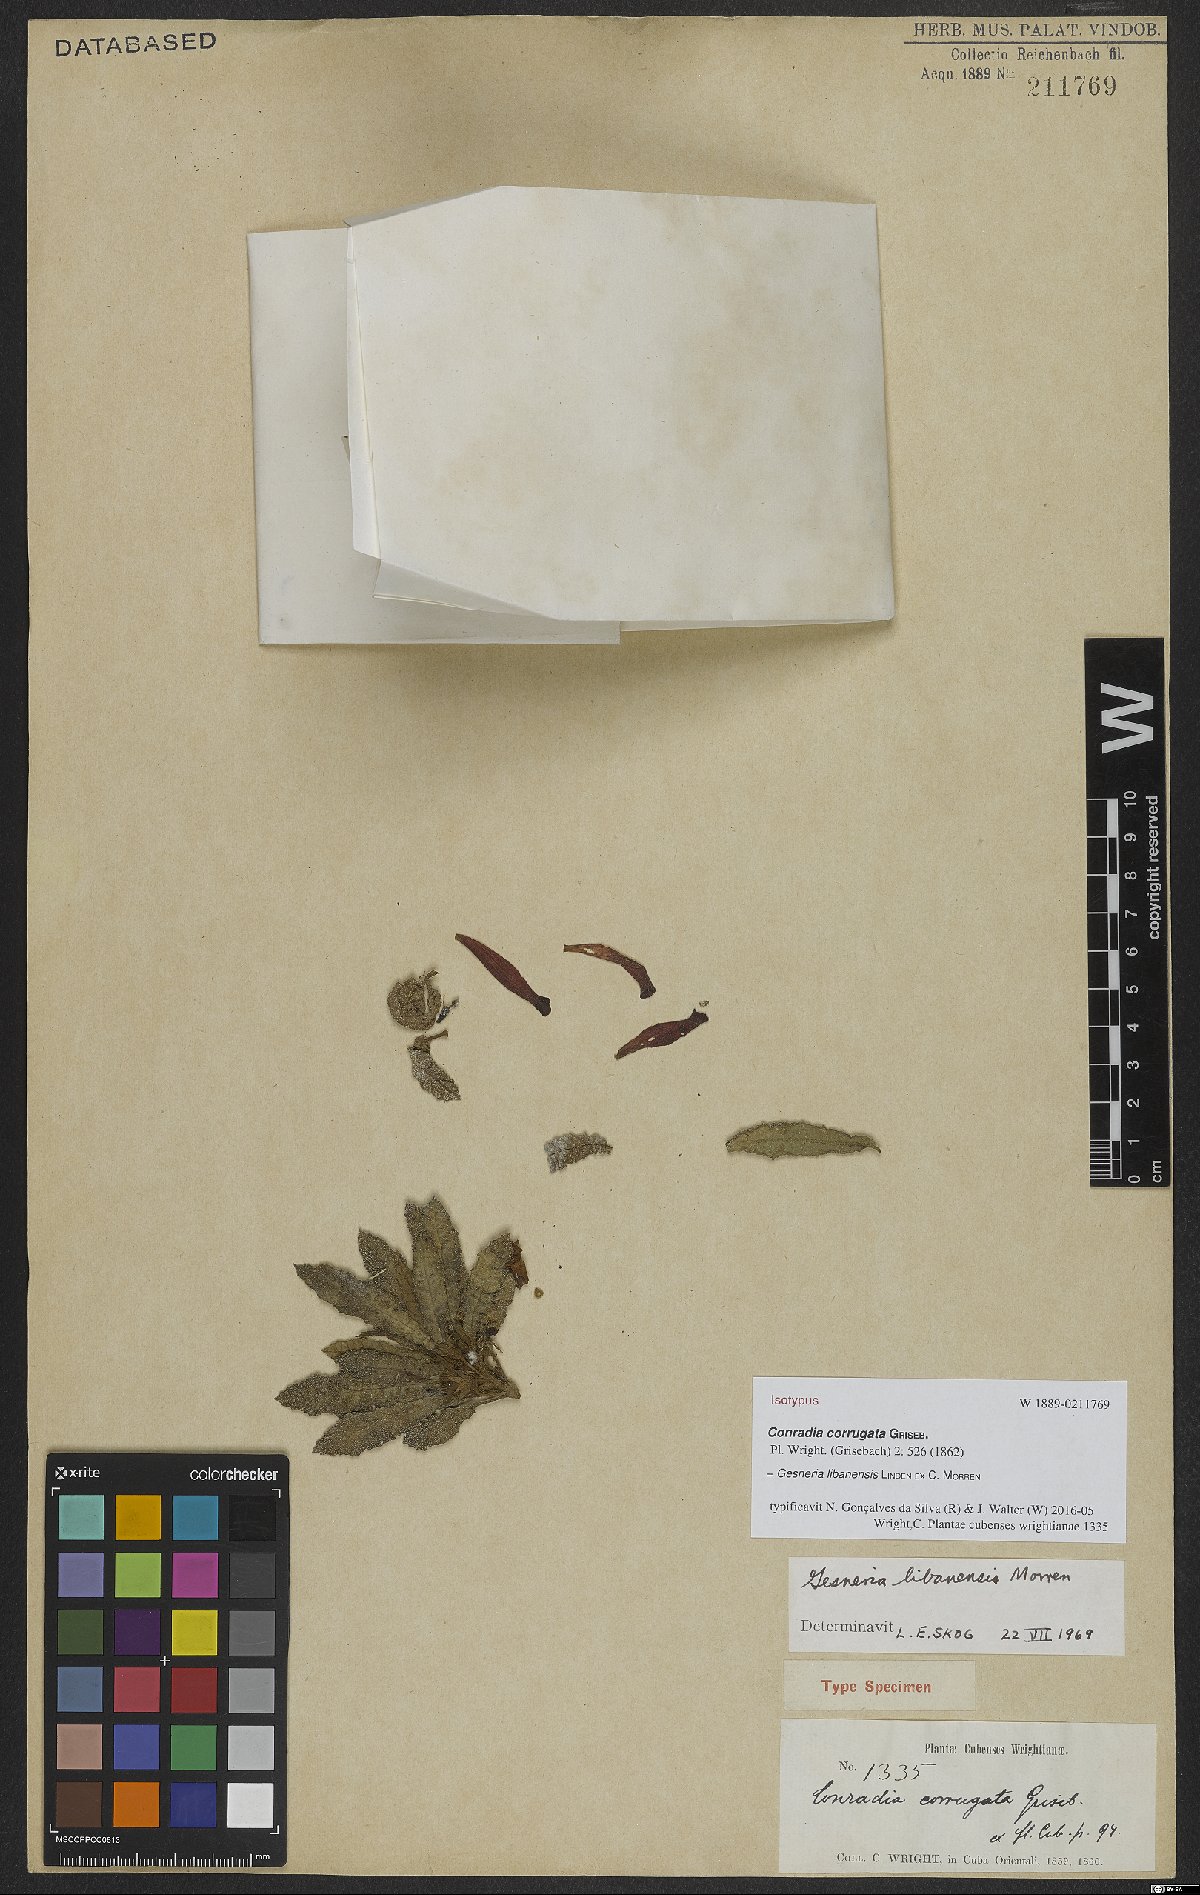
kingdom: Plantae
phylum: Tracheophyta
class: Magnoliopsida
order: Lamiales
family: Gesneriaceae
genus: Gesneria
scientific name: Gesneria libanensis
